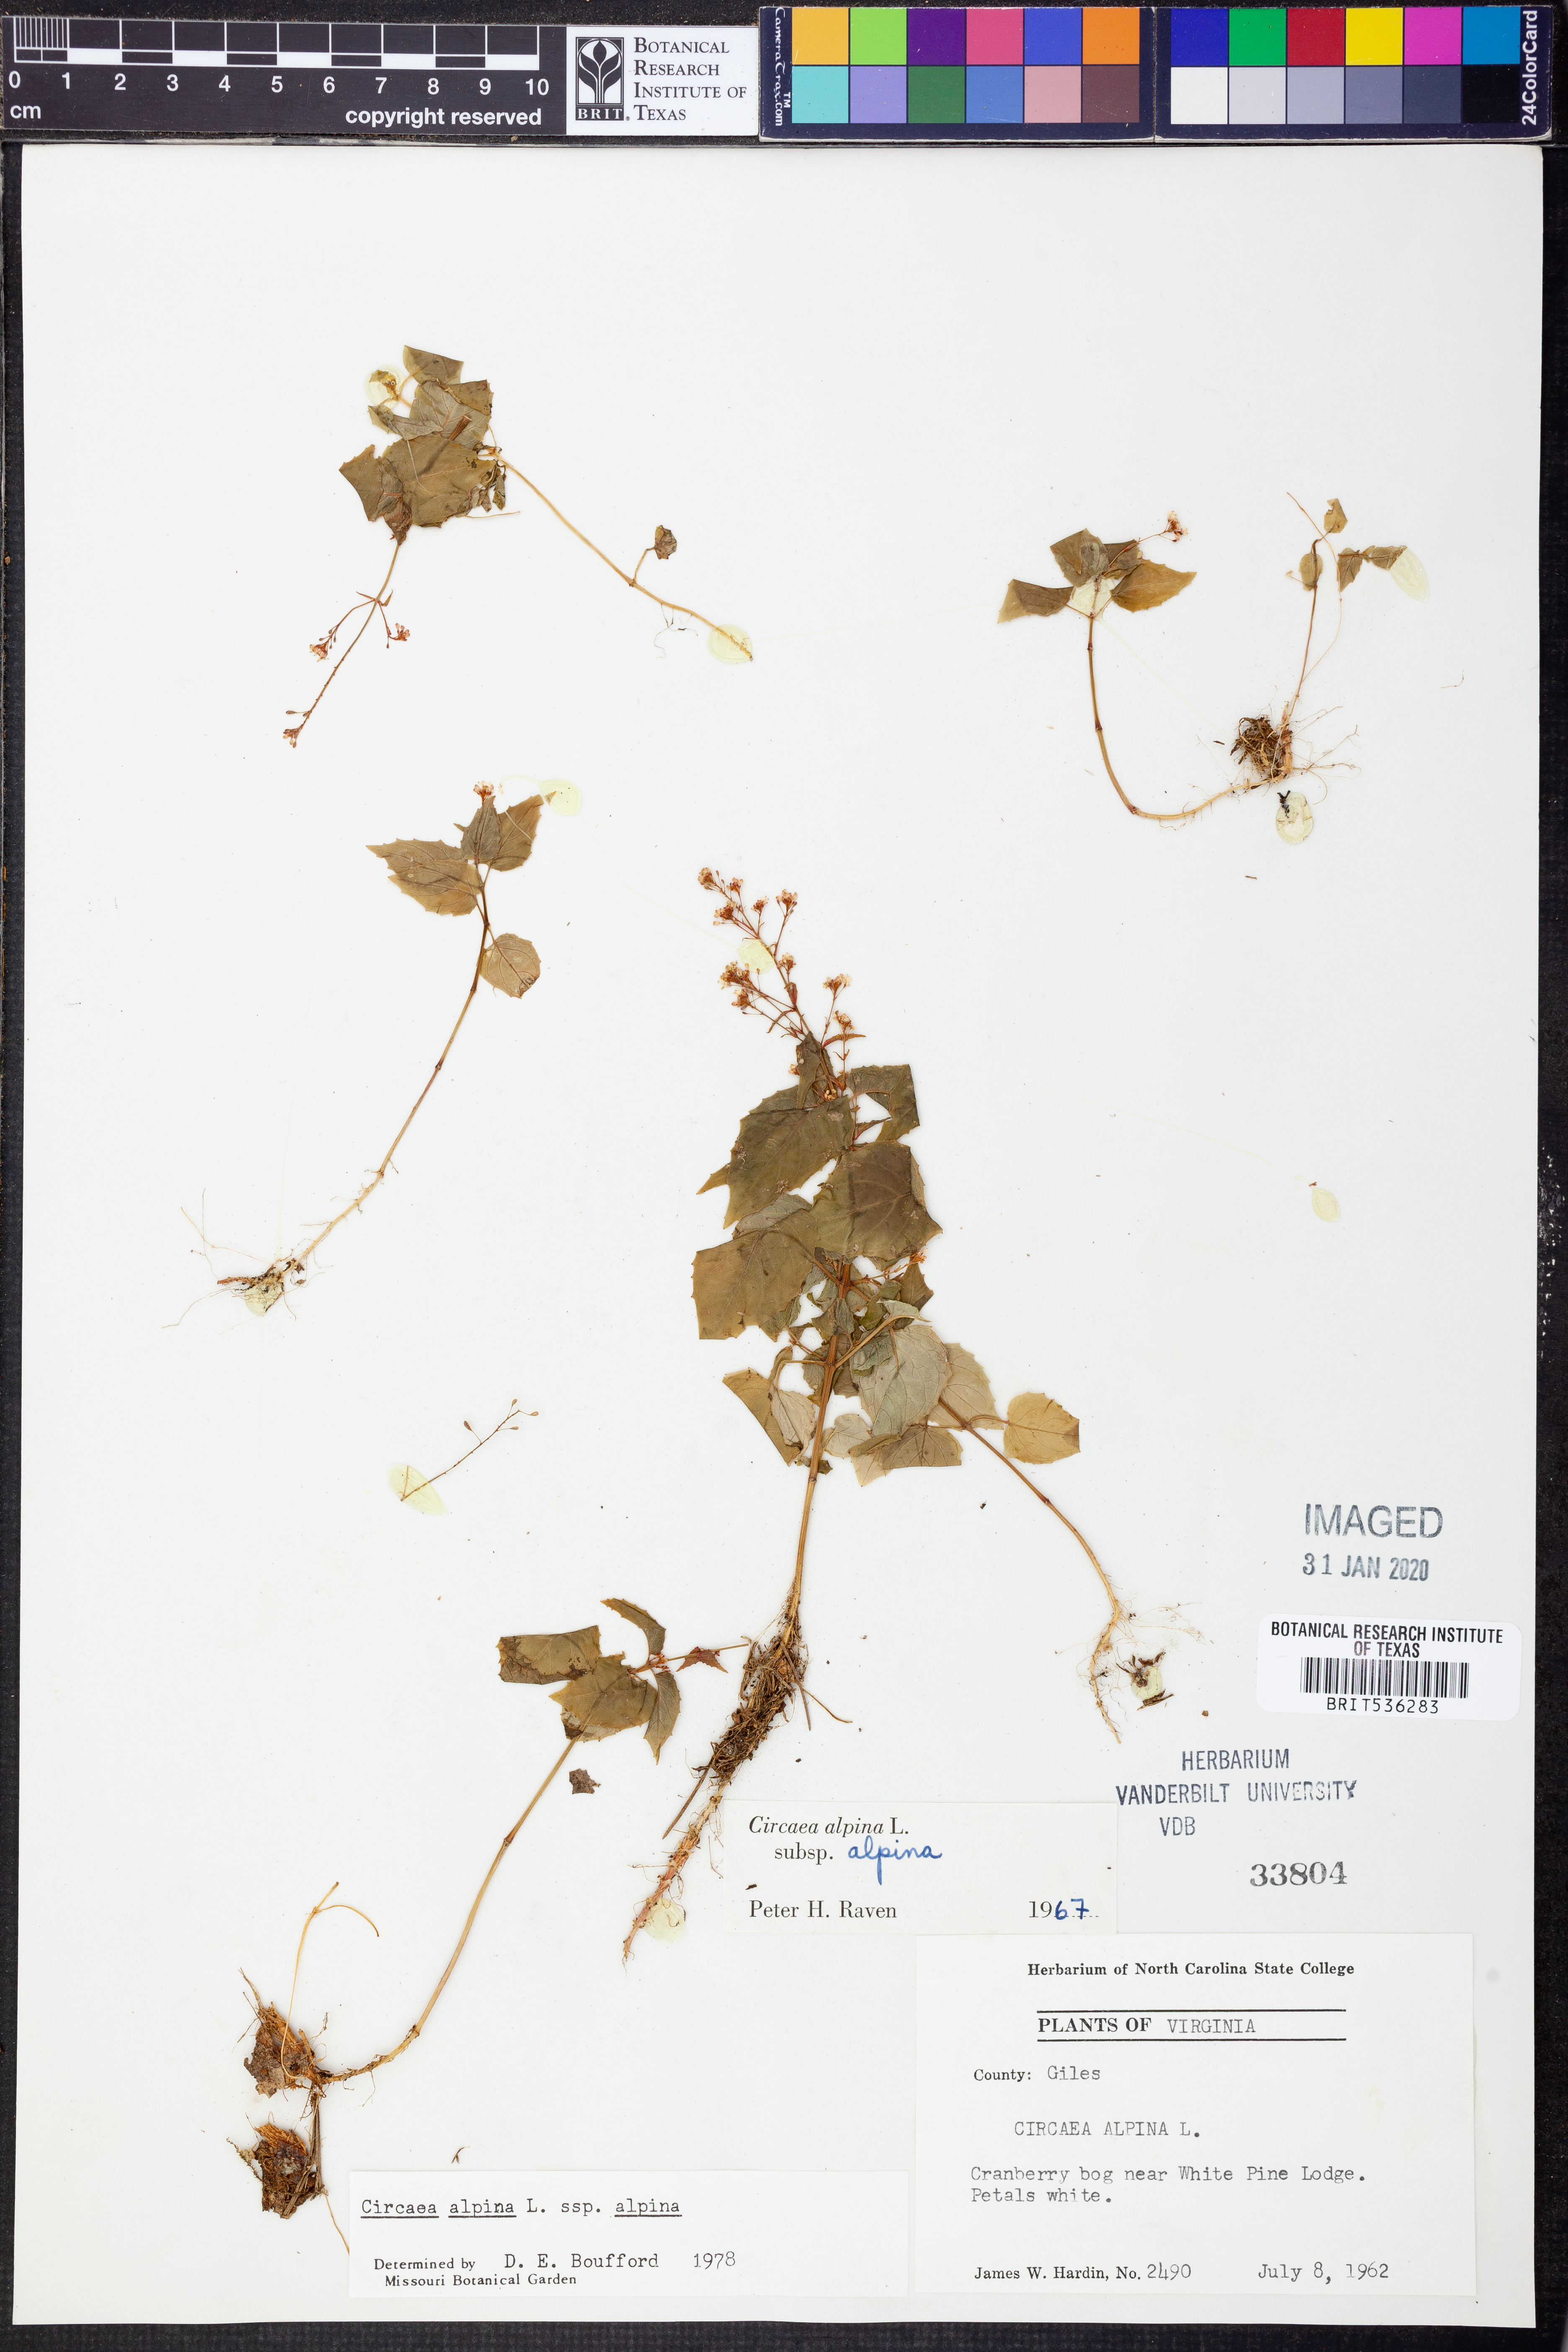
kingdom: Plantae
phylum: Tracheophyta
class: Magnoliopsida
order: Myrtales
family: Onagraceae
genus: Circaea
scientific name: Circaea alpina
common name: Alpine enchanter's-nightshade
